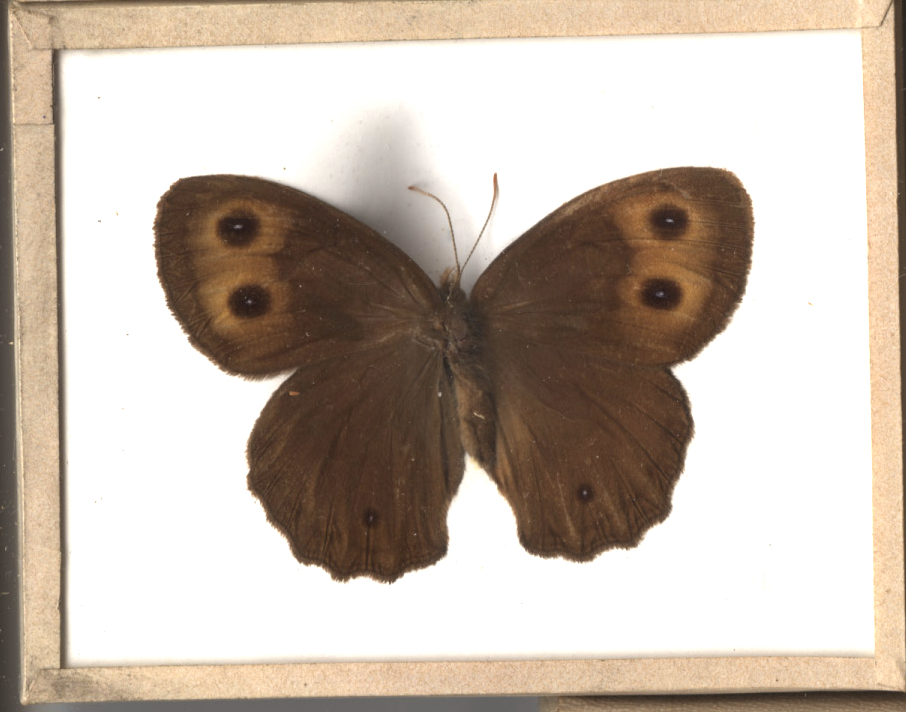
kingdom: Animalia
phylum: Arthropoda
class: Insecta
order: Lepidoptera
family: Nymphalidae
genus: Cercyonis
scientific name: Cercyonis pegala
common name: Common Wood Nymph
